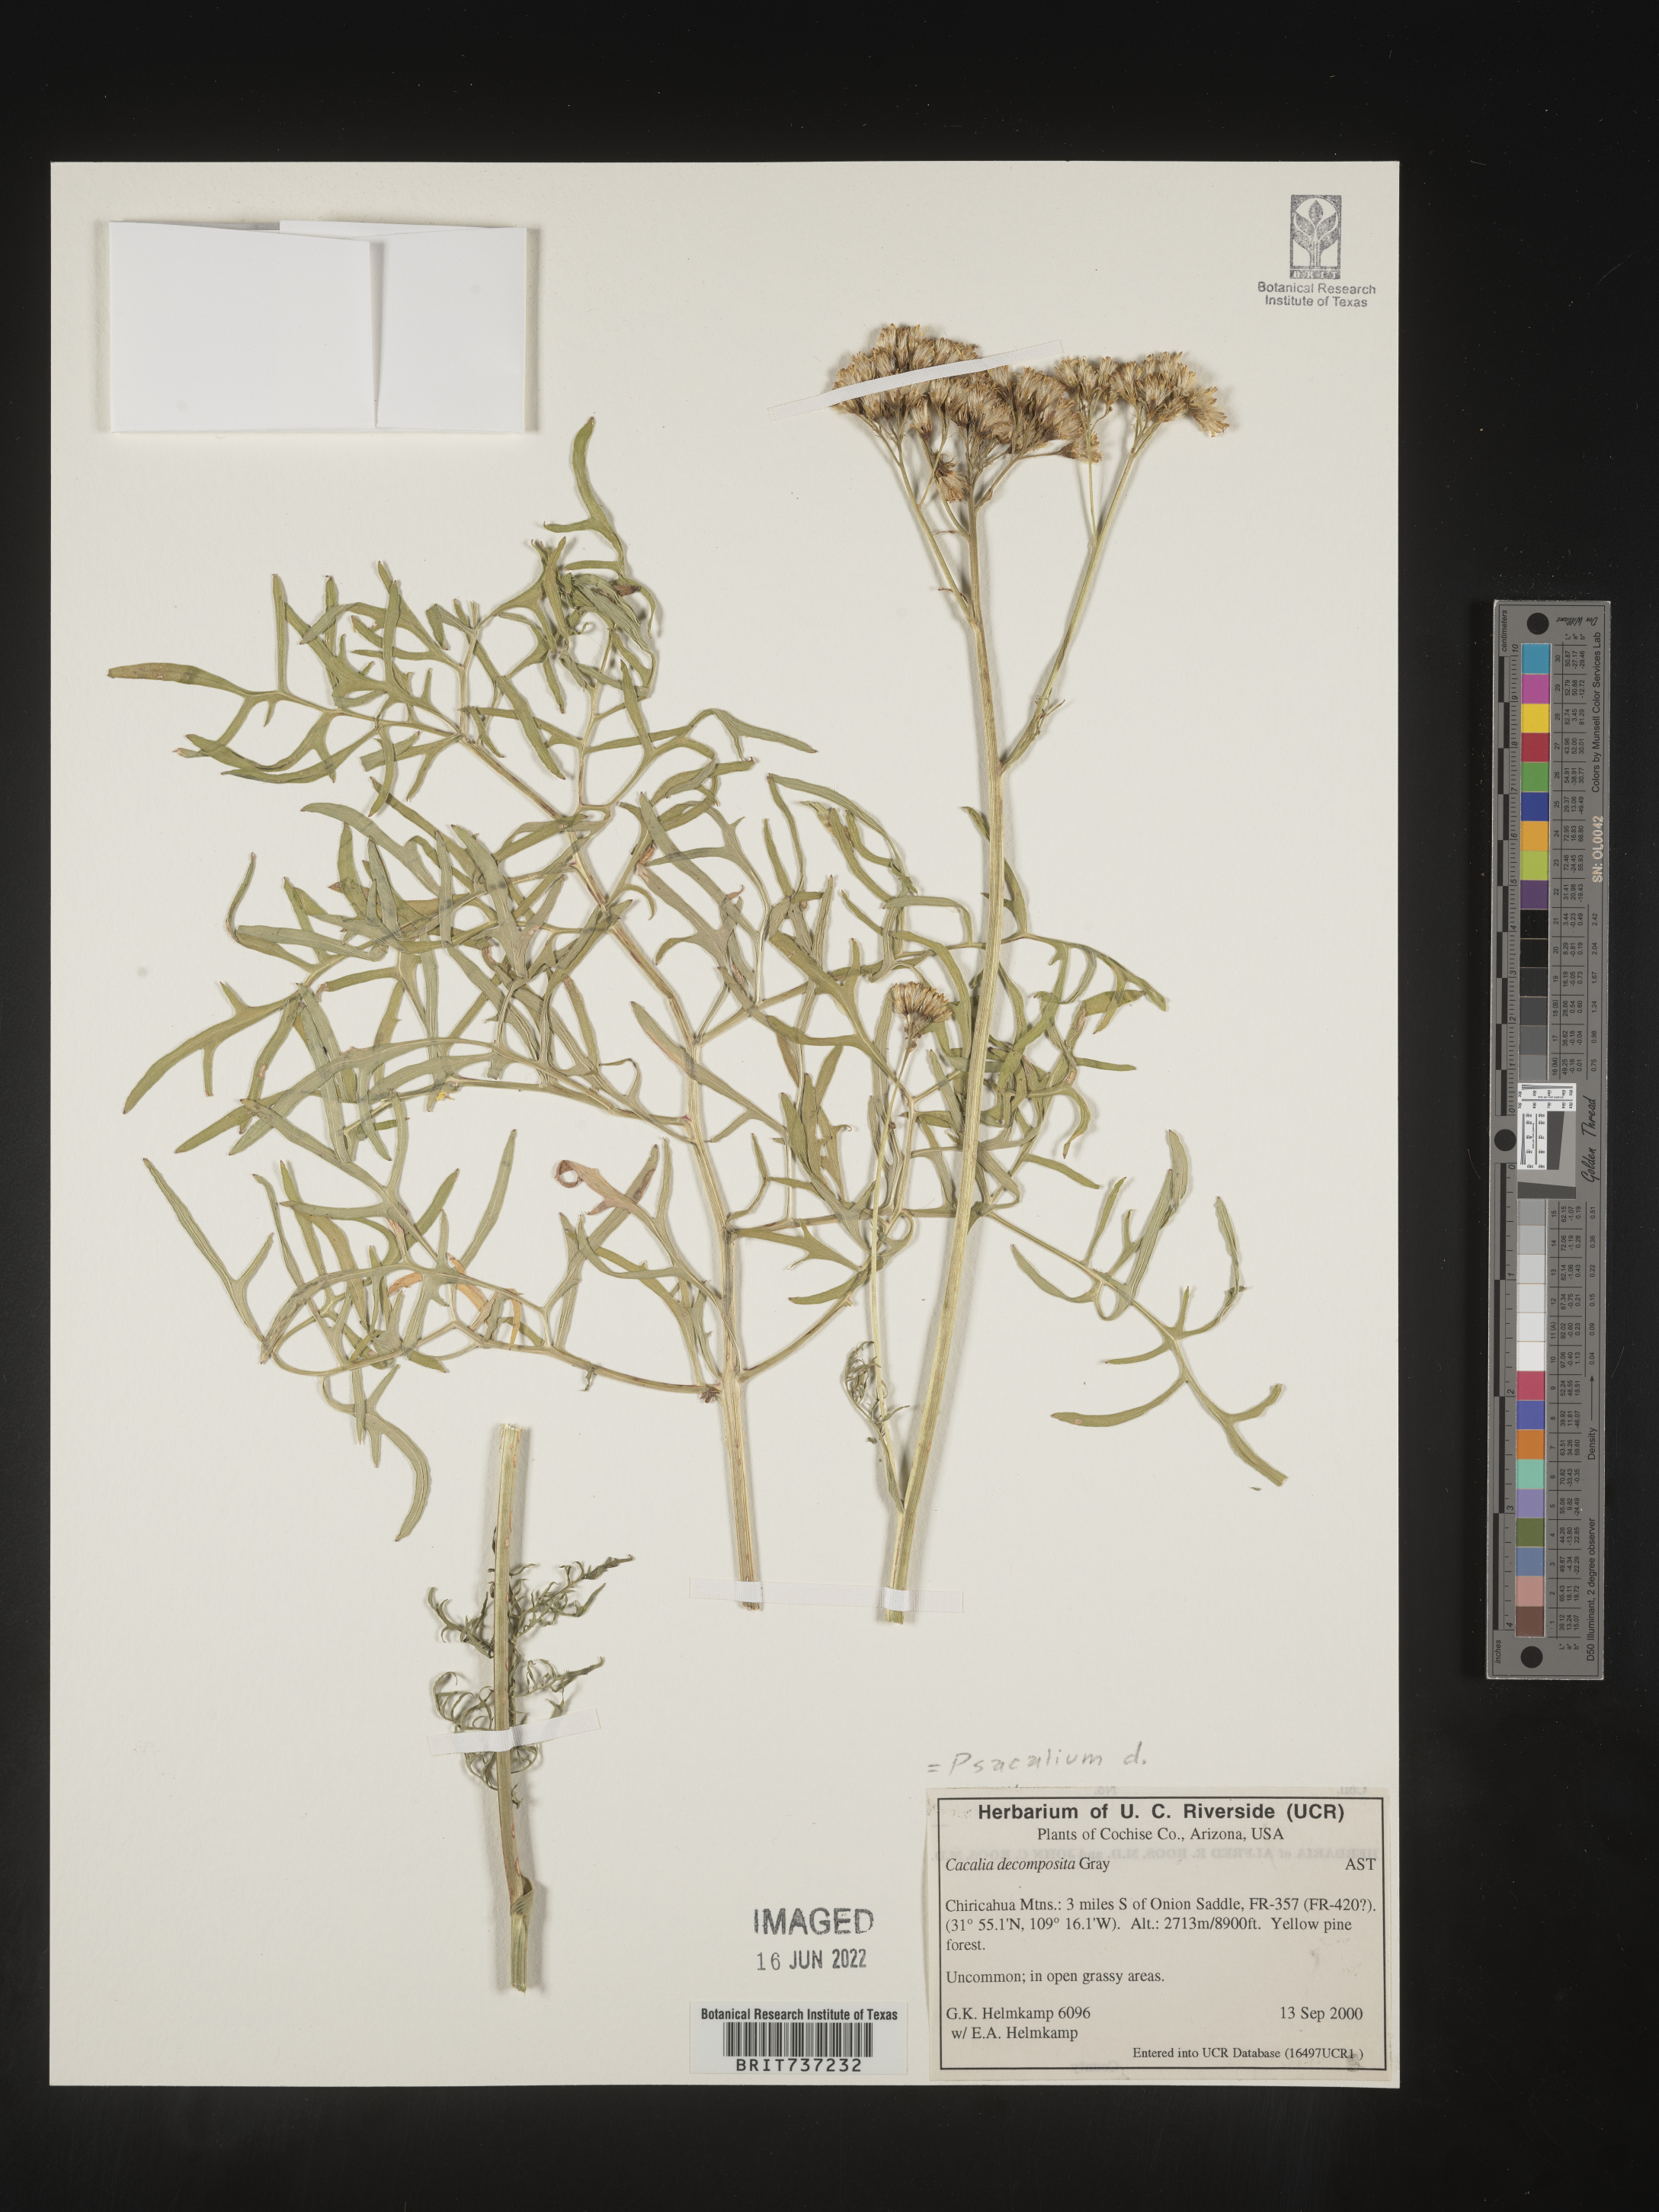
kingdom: Plantae
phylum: Tracheophyta
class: Magnoliopsida
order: Asterales
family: Asteraceae
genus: Psacalium
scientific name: Psacalium
